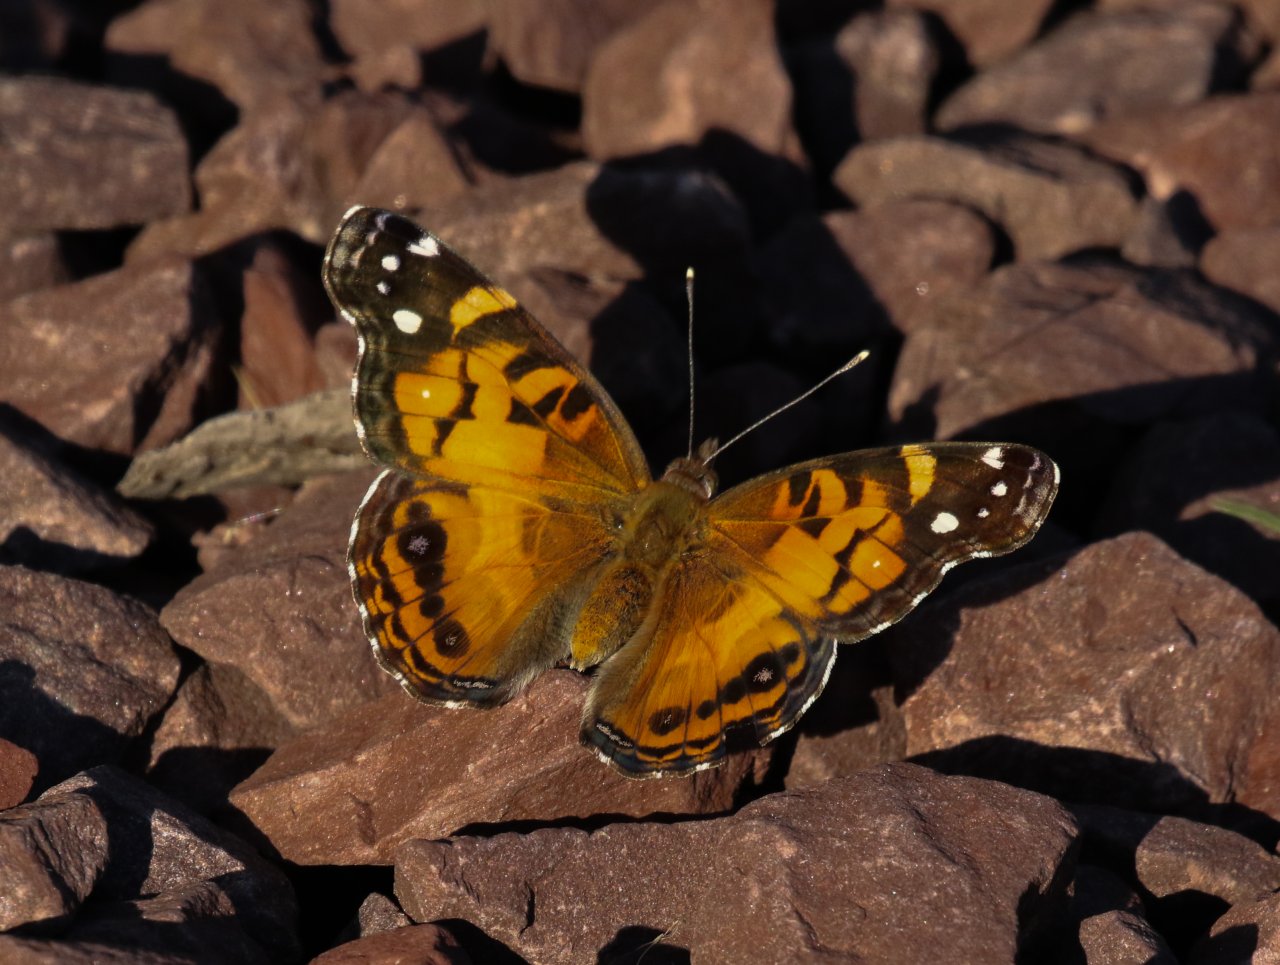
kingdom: Animalia
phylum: Arthropoda
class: Insecta
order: Lepidoptera
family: Nymphalidae
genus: Vanessa
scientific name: Vanessa virginiensis
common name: American Lady
